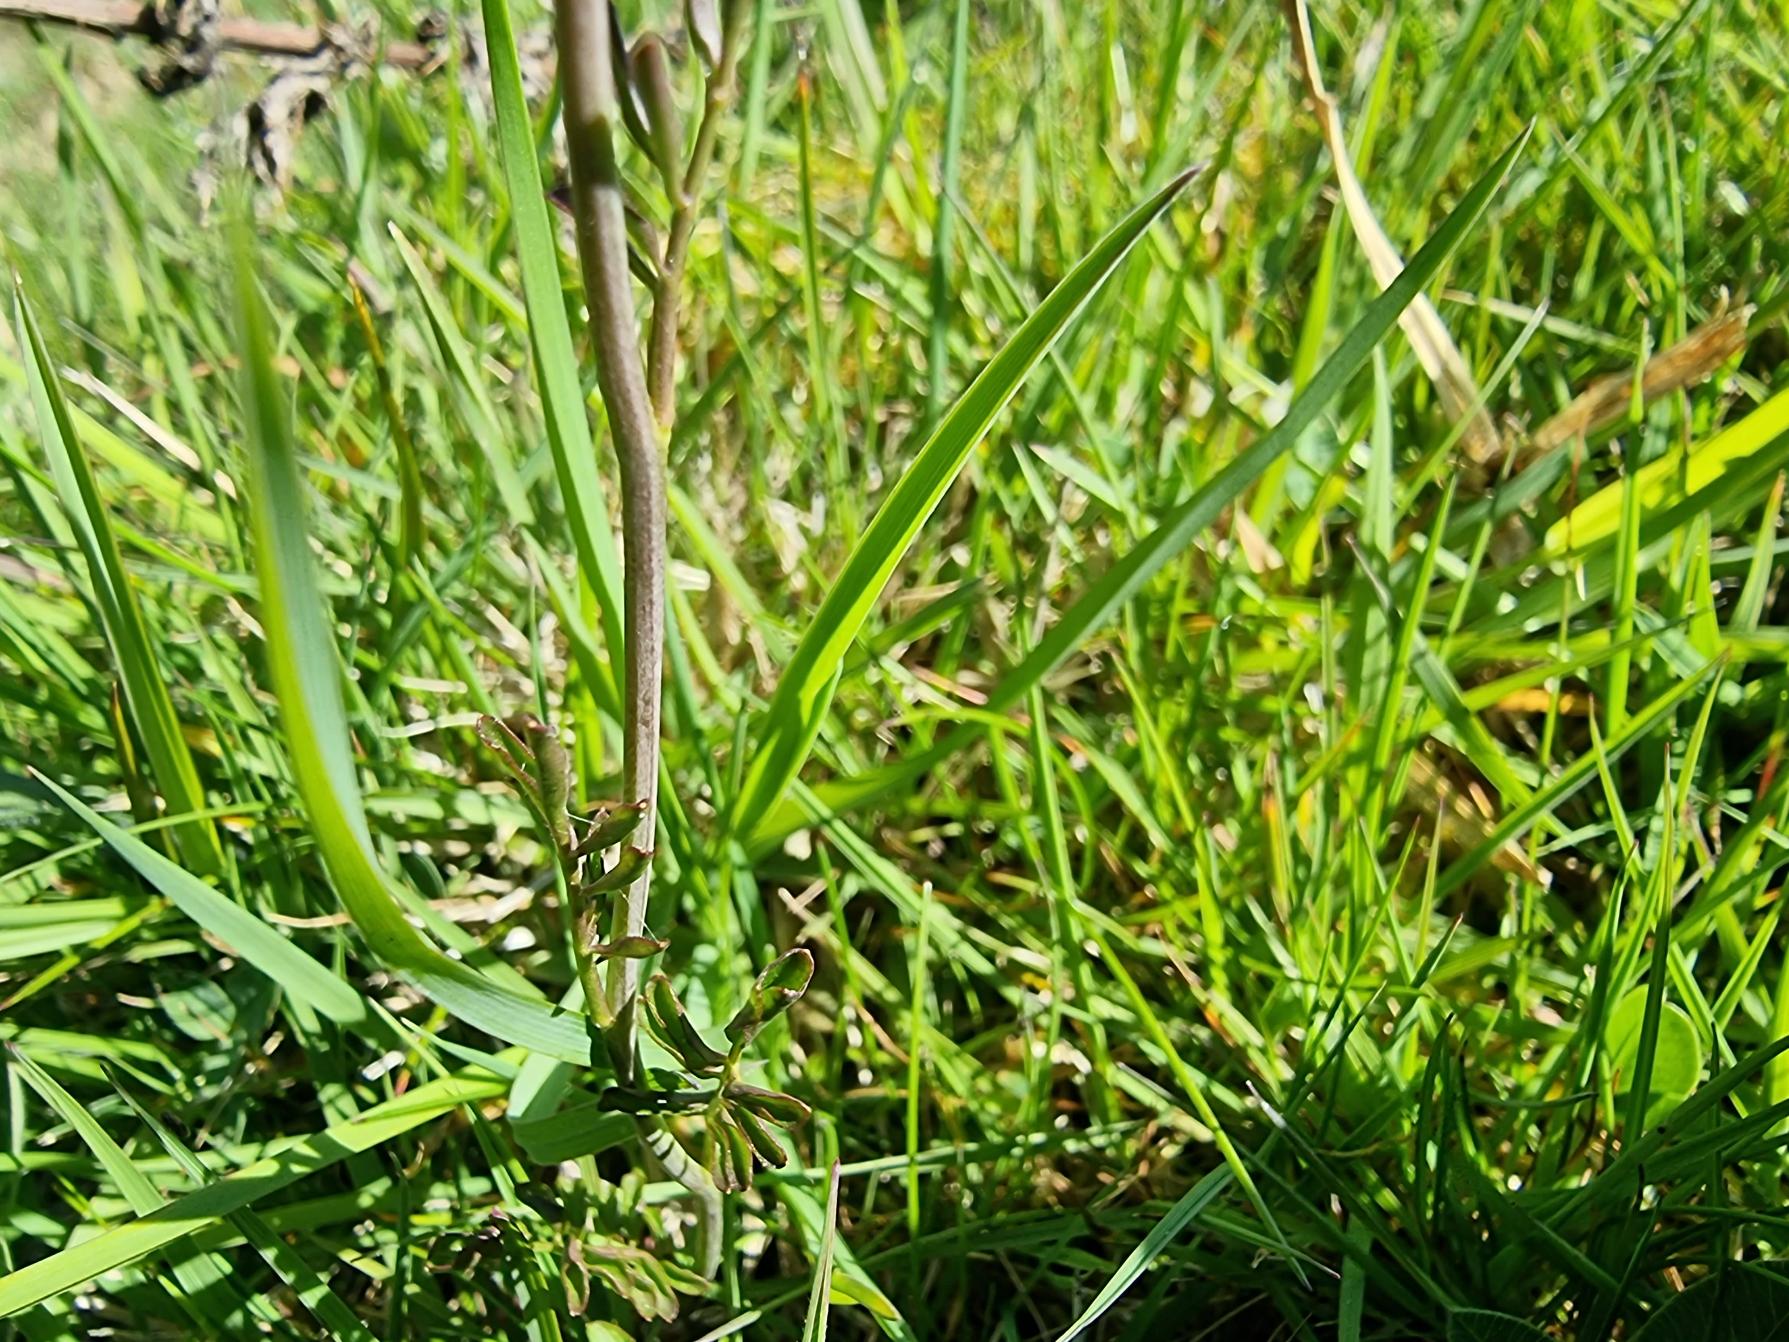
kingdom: Plantae
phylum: Tracheophyta
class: Magnoliopsida
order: Brassicales
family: Brassicaceae
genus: Cardamine
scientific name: Cardamine pratensis
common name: Engkarse
